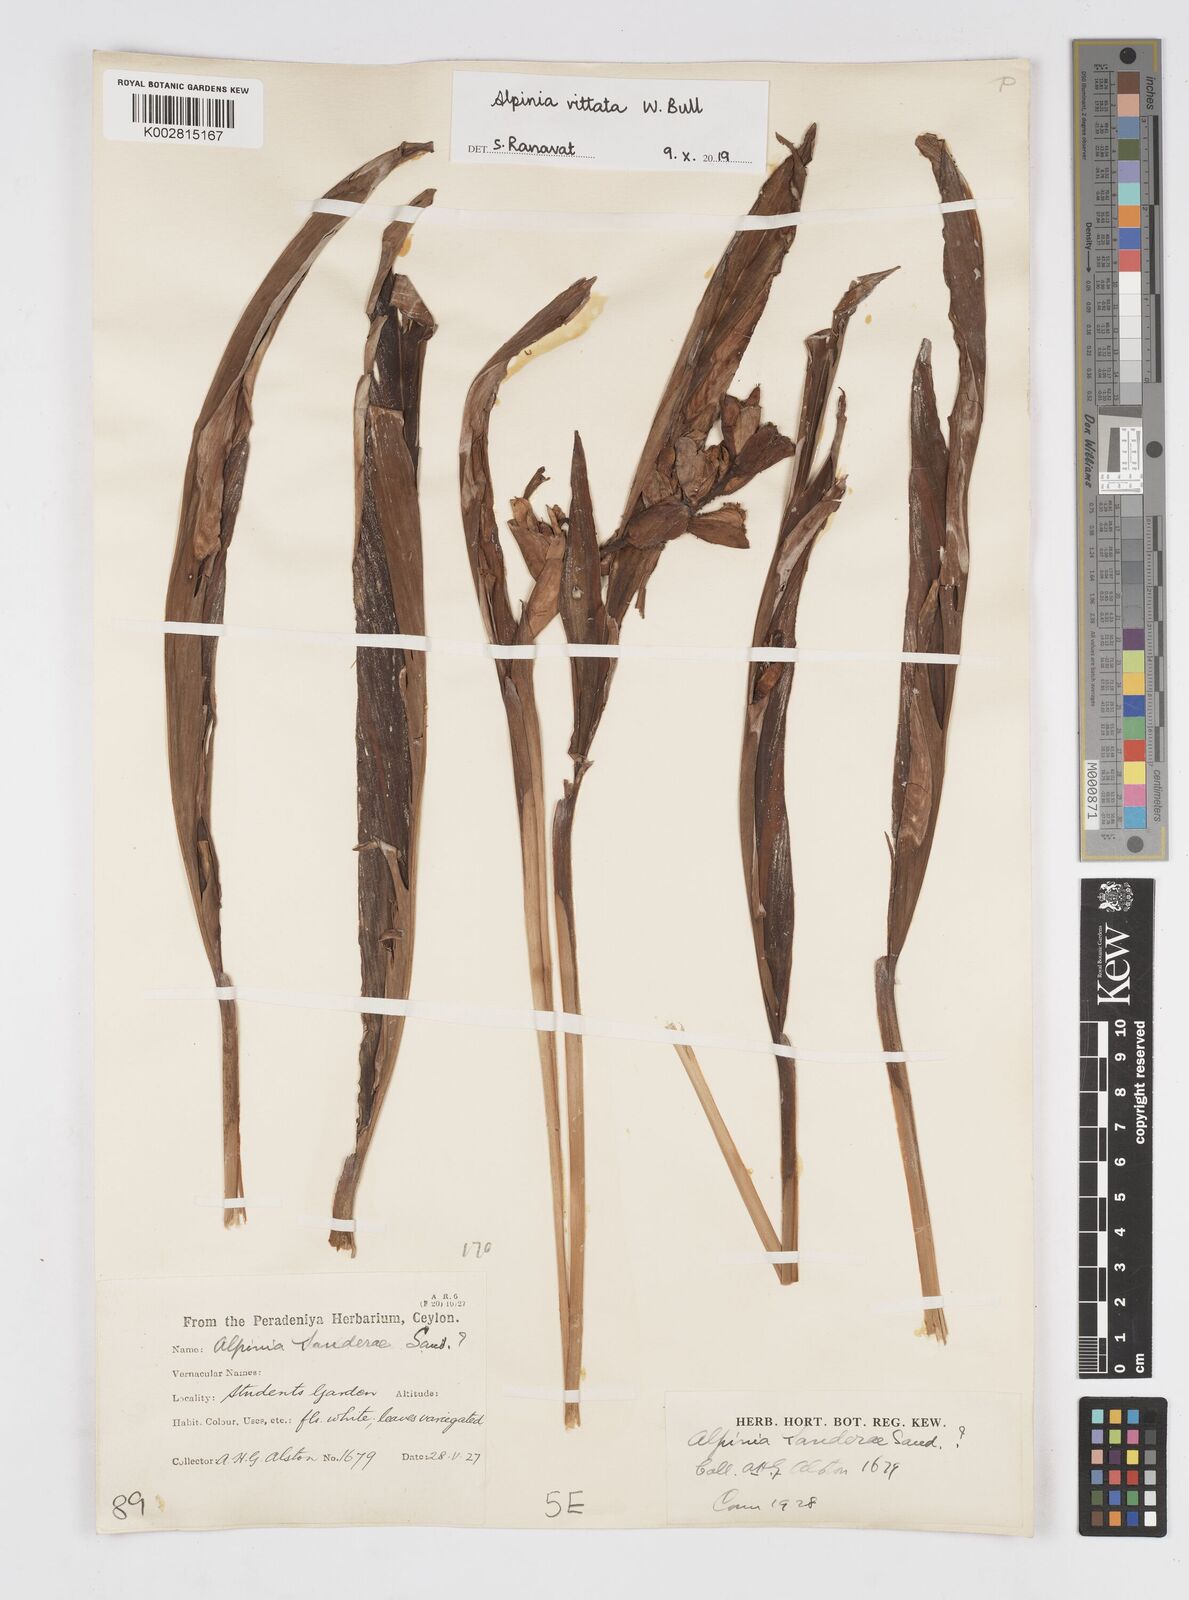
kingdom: Plantae
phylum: Tracheophyta
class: Liliopsida
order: Zingiberales
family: Zingiberaceae
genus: Alpinia
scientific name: Alpinia vittata
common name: Variegate-ginger
